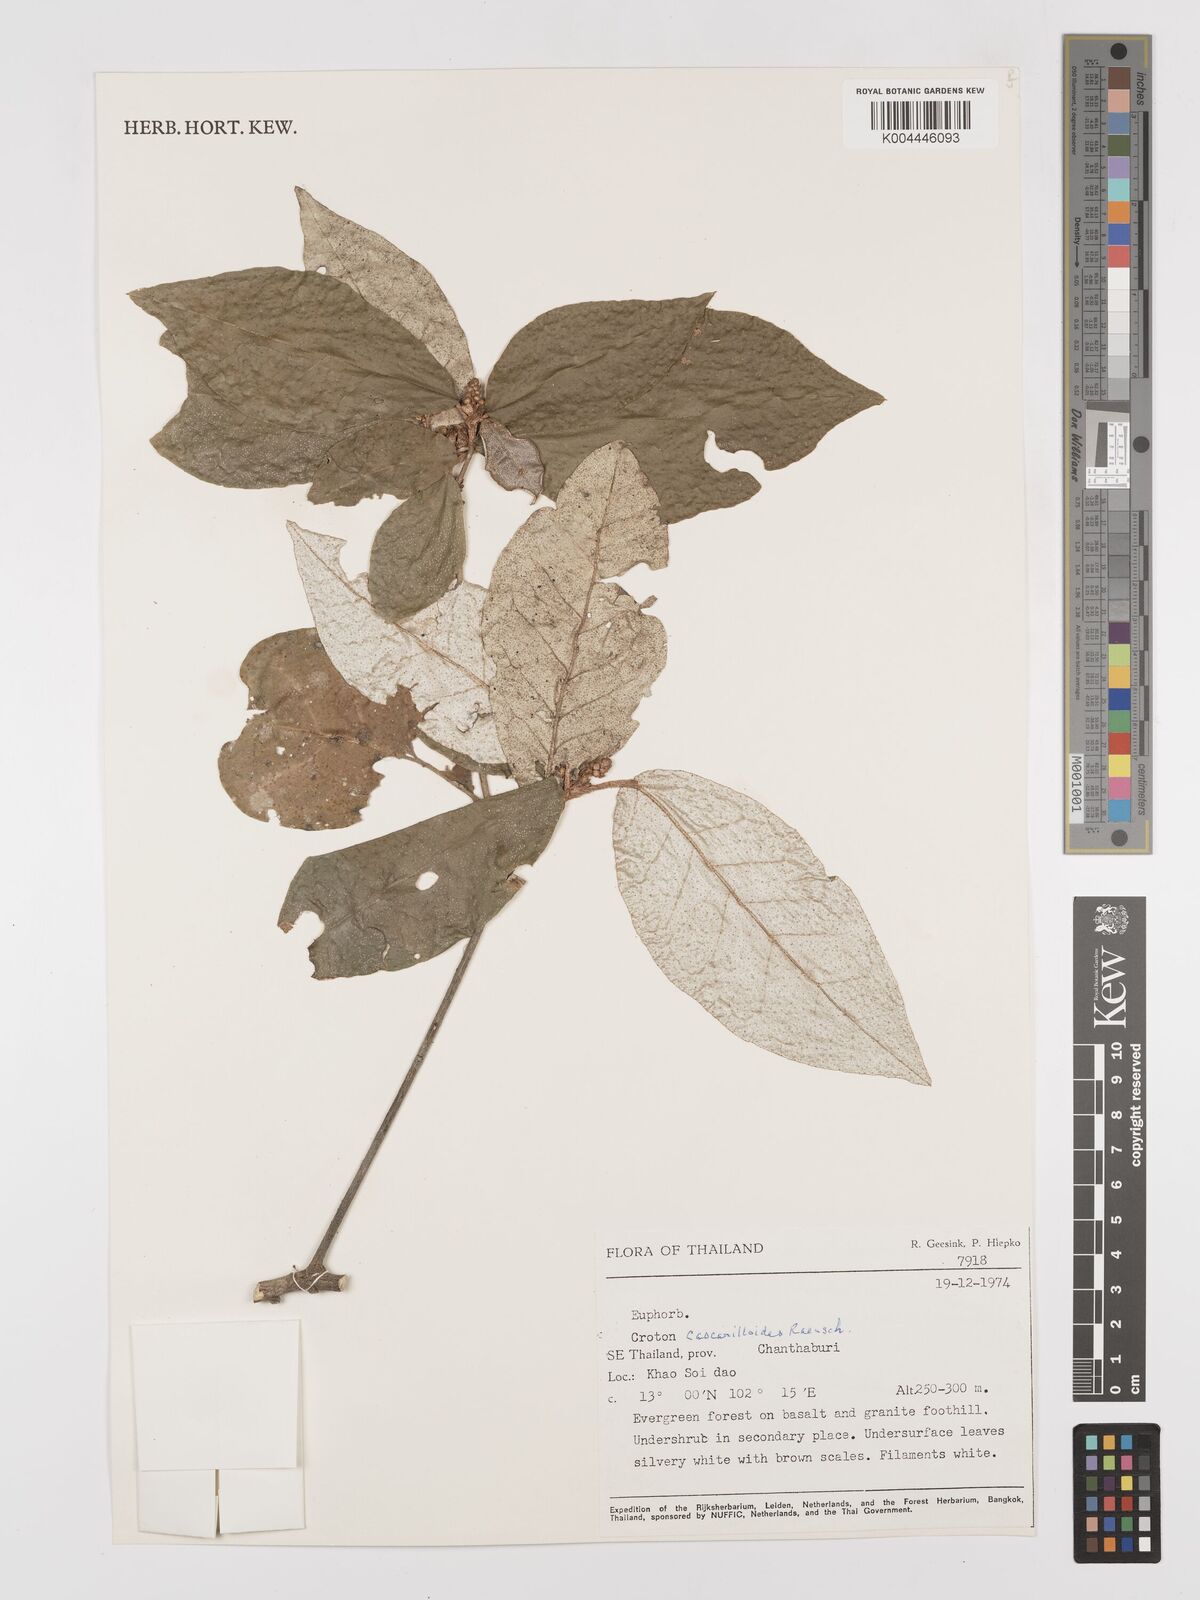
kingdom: Plantae
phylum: Tracheophyta
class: Magnoliopsida
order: Malpighiales
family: Euphorbiaceae
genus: Croton
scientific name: Croton
